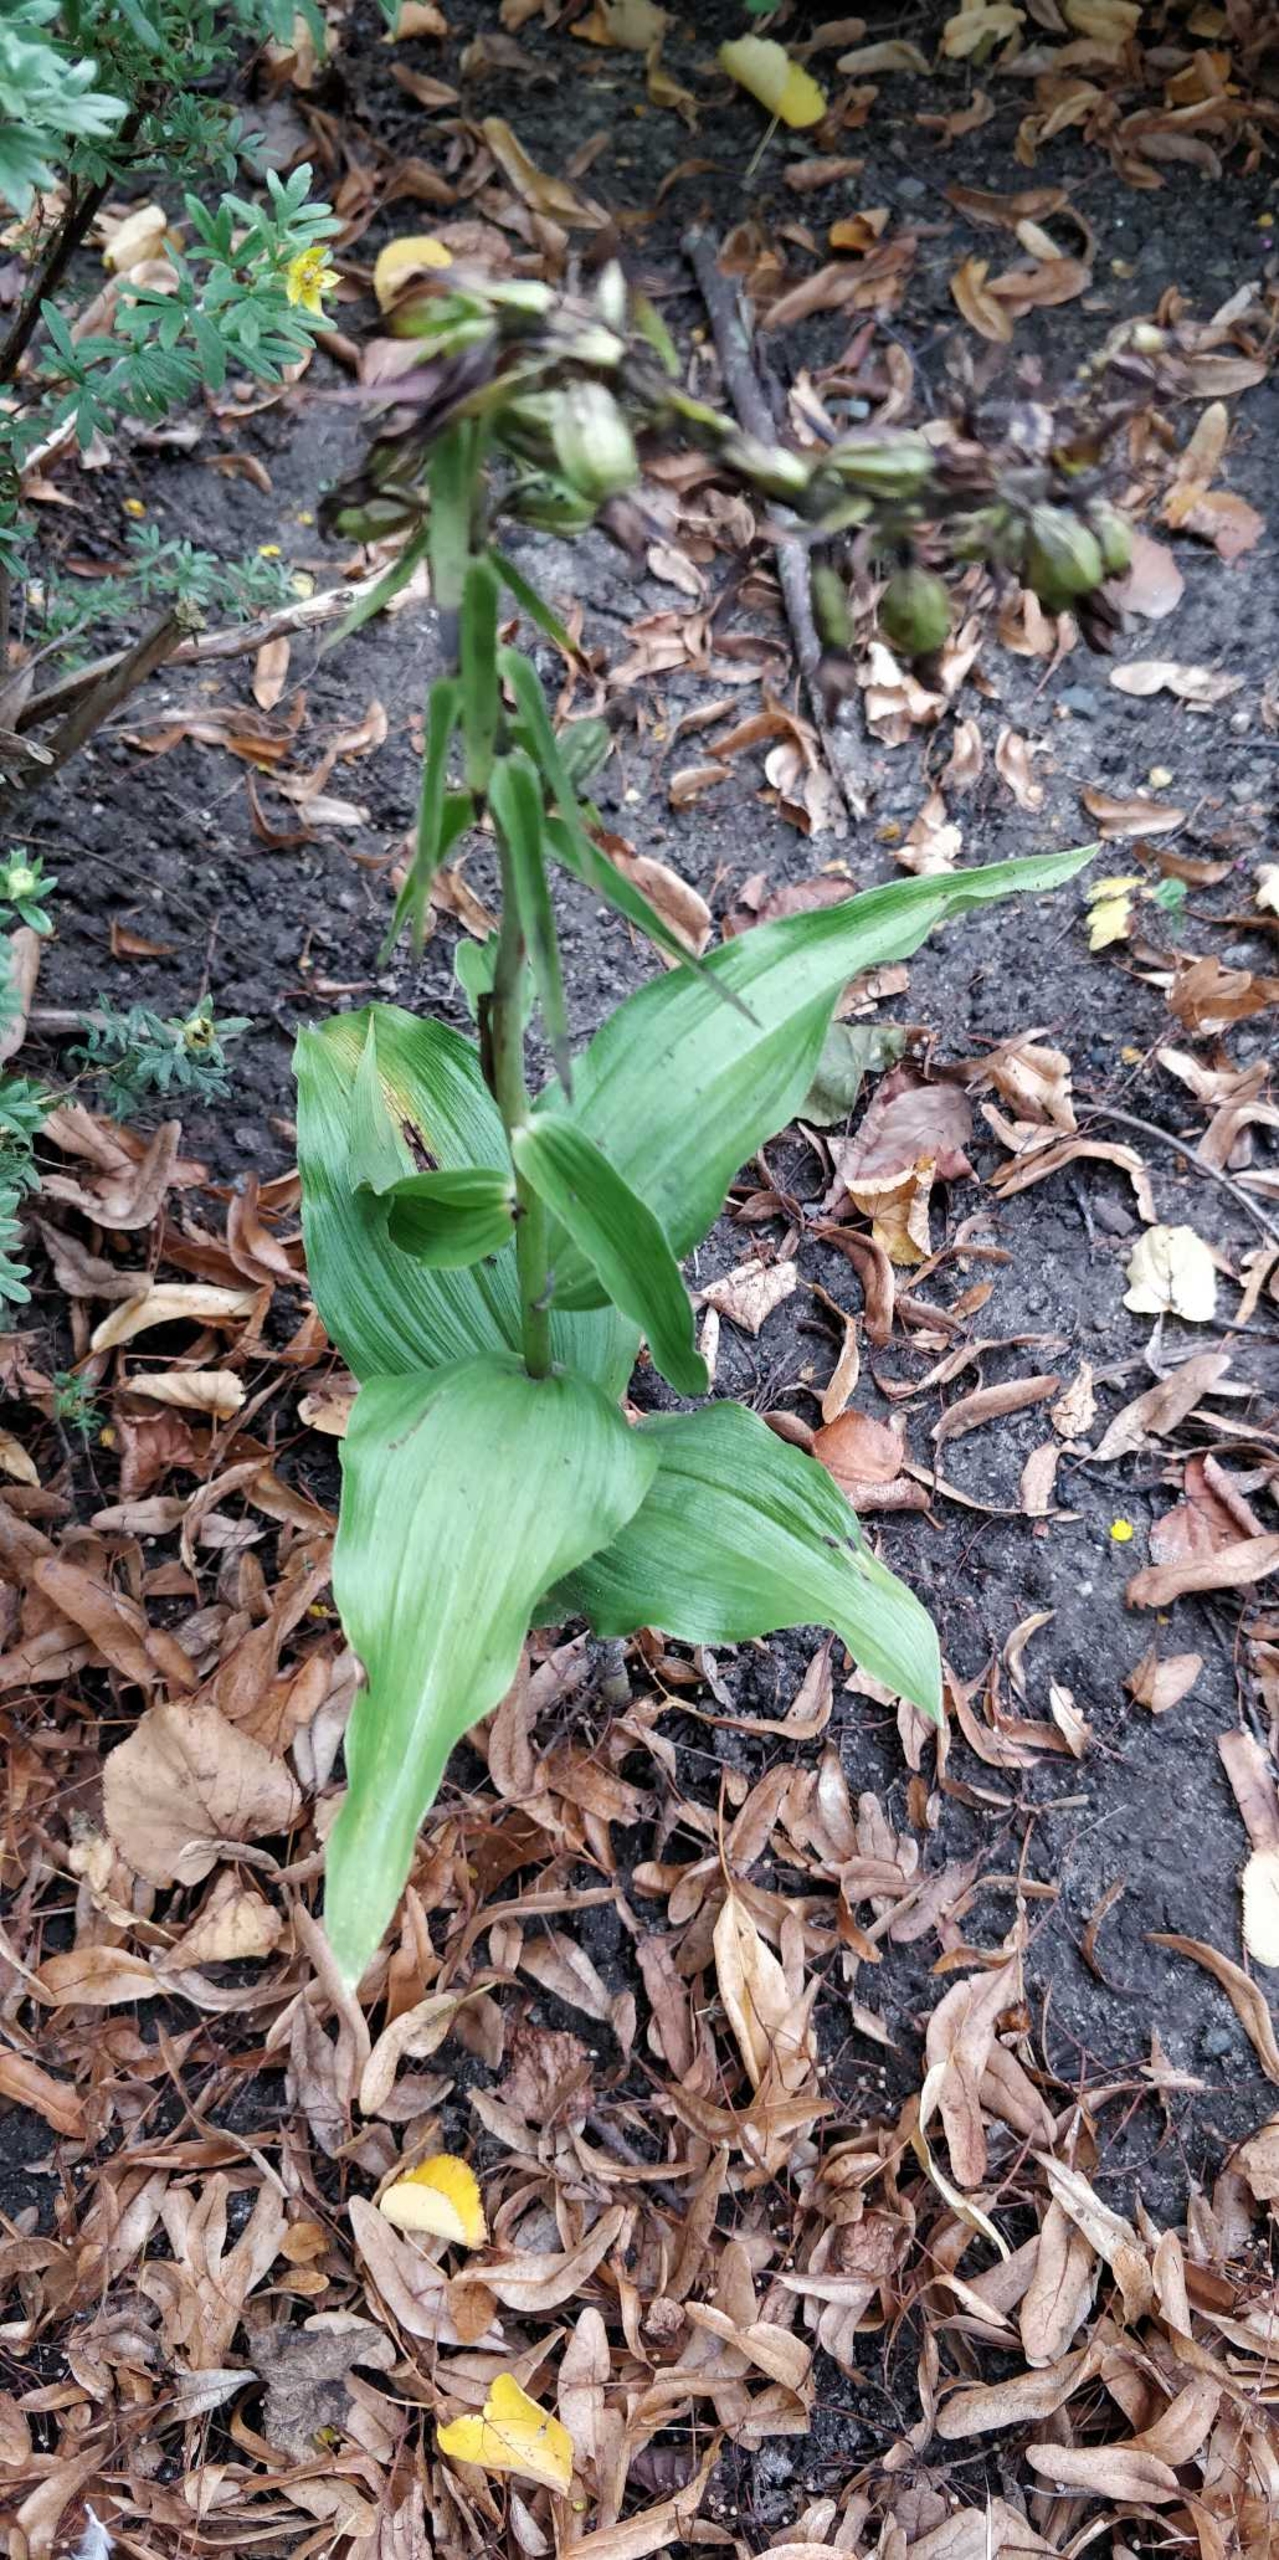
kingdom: Plantae
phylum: Tracheophyta
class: Liliopsida
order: Asparagales
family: Orchidaceae
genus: Epipactis
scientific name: Epipactis helleborine
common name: Skov-hullæbe
